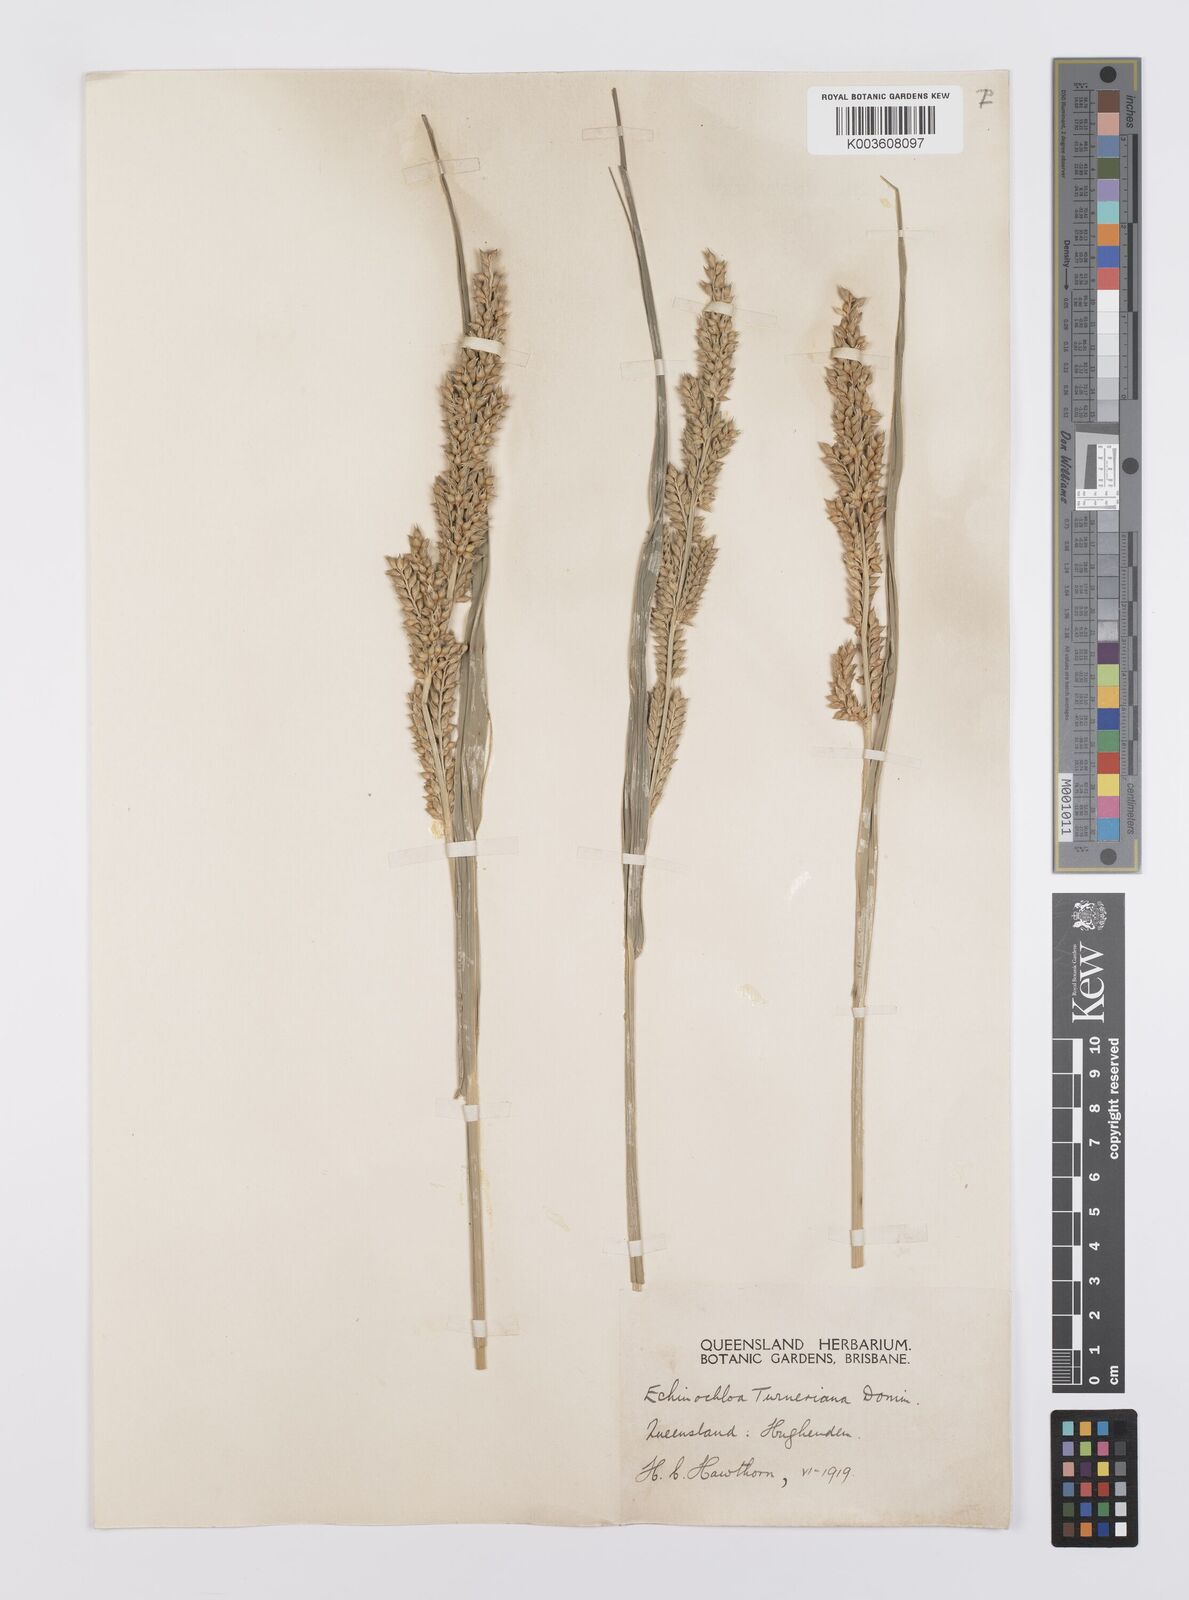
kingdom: Plantae
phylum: Tracheophyta
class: Liliopsida
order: Poales
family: Poaceae
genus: Echinochloa
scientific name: Echinochloa turneriana
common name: Channel millet
